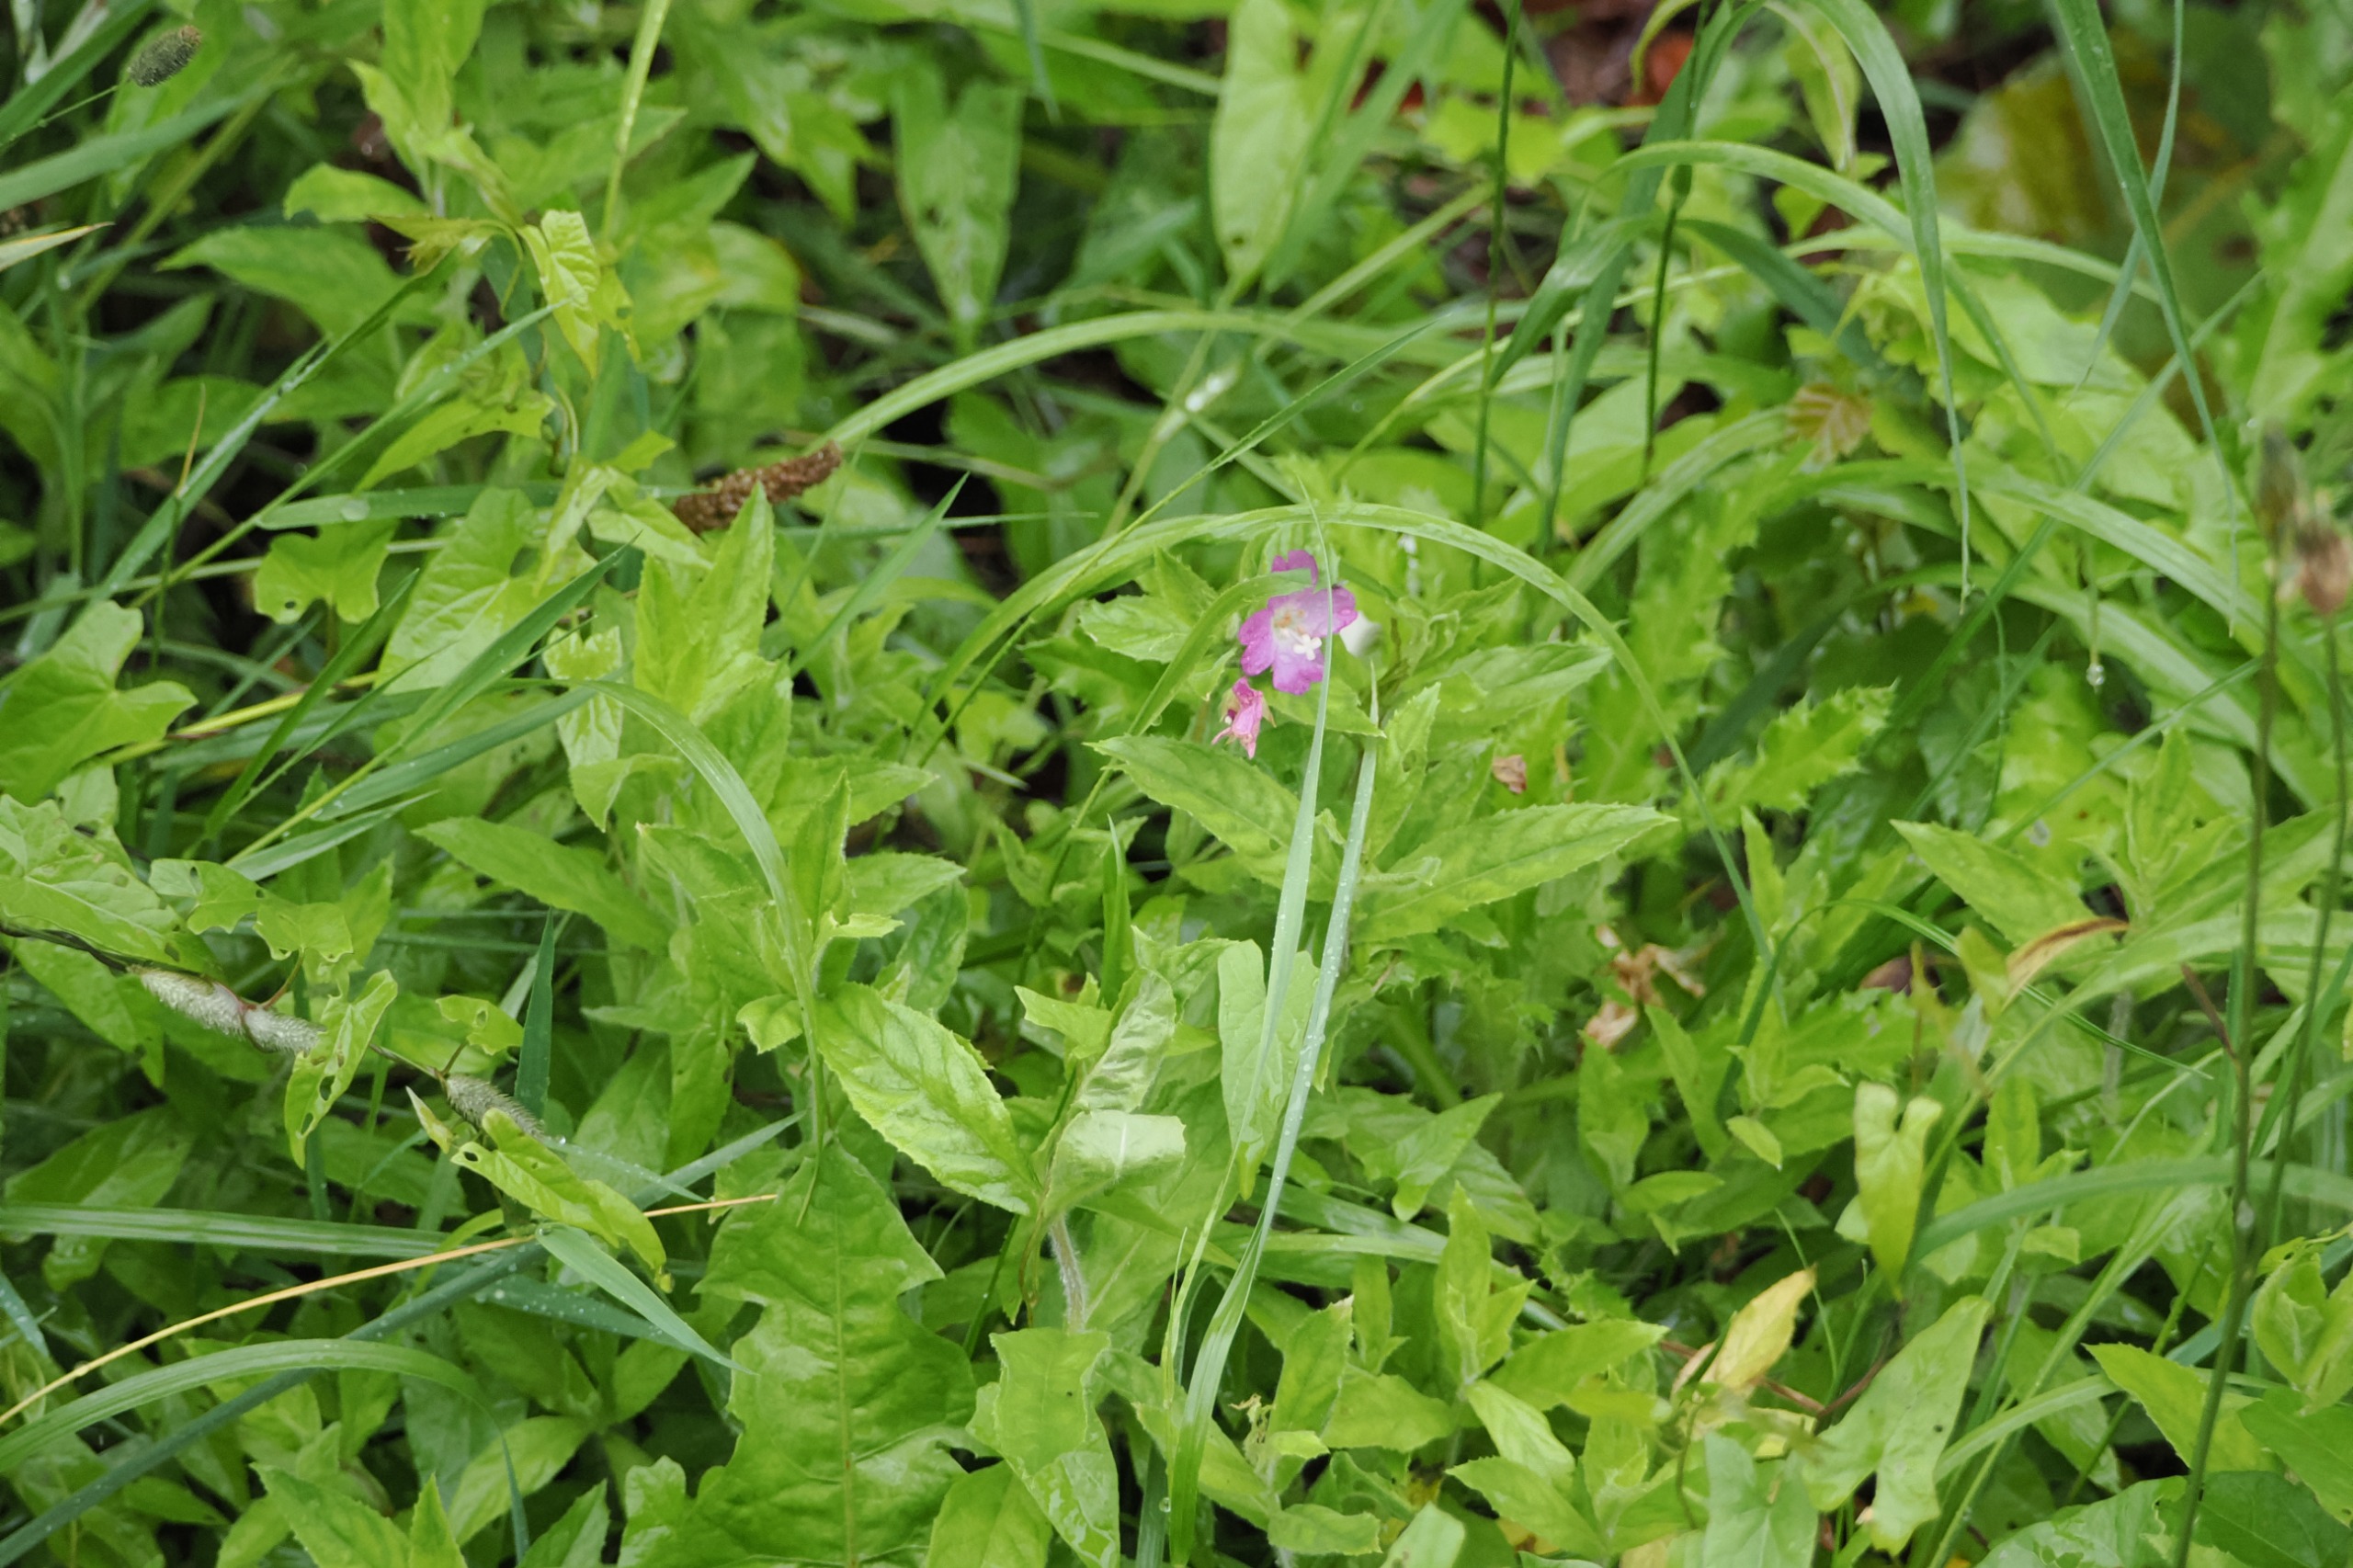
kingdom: Plantae
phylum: Tracheophyta
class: Magnoliopsida
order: Myrtales
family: Onagraceae
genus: Epilobium
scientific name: Epilobium hirsutum
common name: Lådden dueurt
